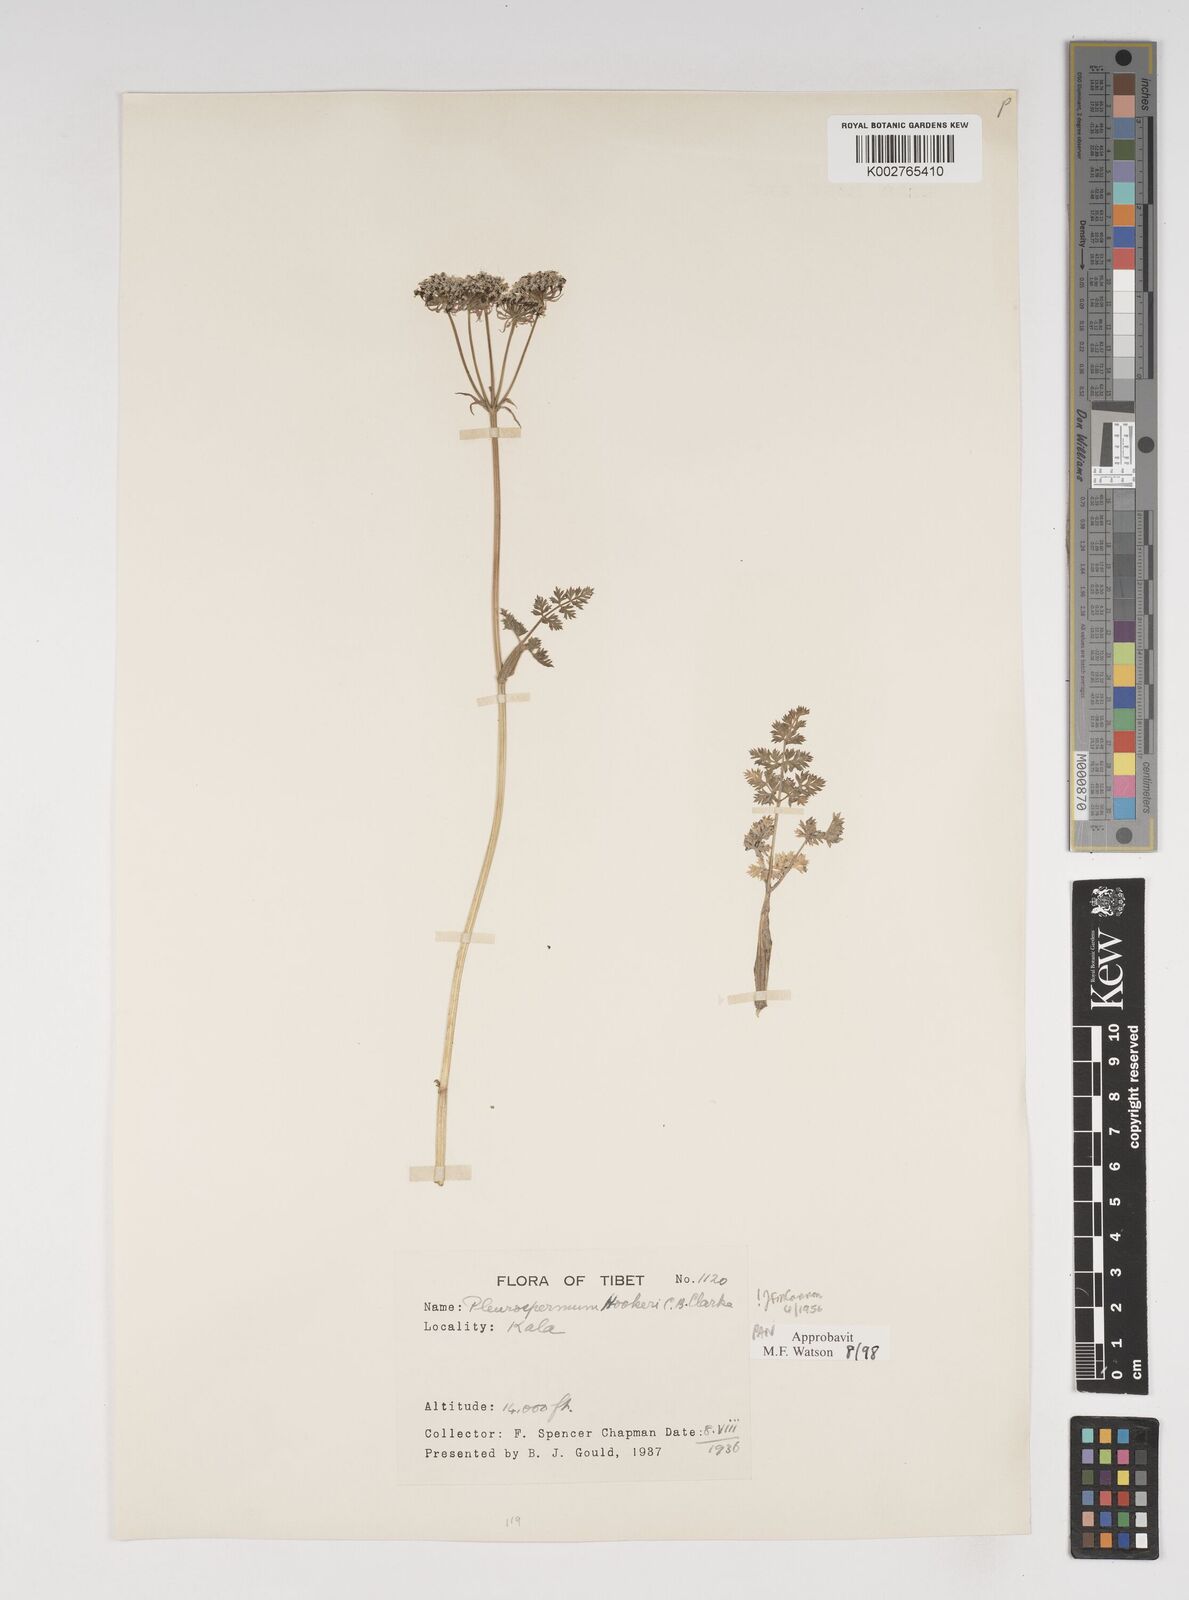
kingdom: Plantae
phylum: Tracheophyta
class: Magnoliopsida
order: Apiales
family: Apiaceae
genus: Pleurospermum
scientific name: Pleurospermum hookeri
